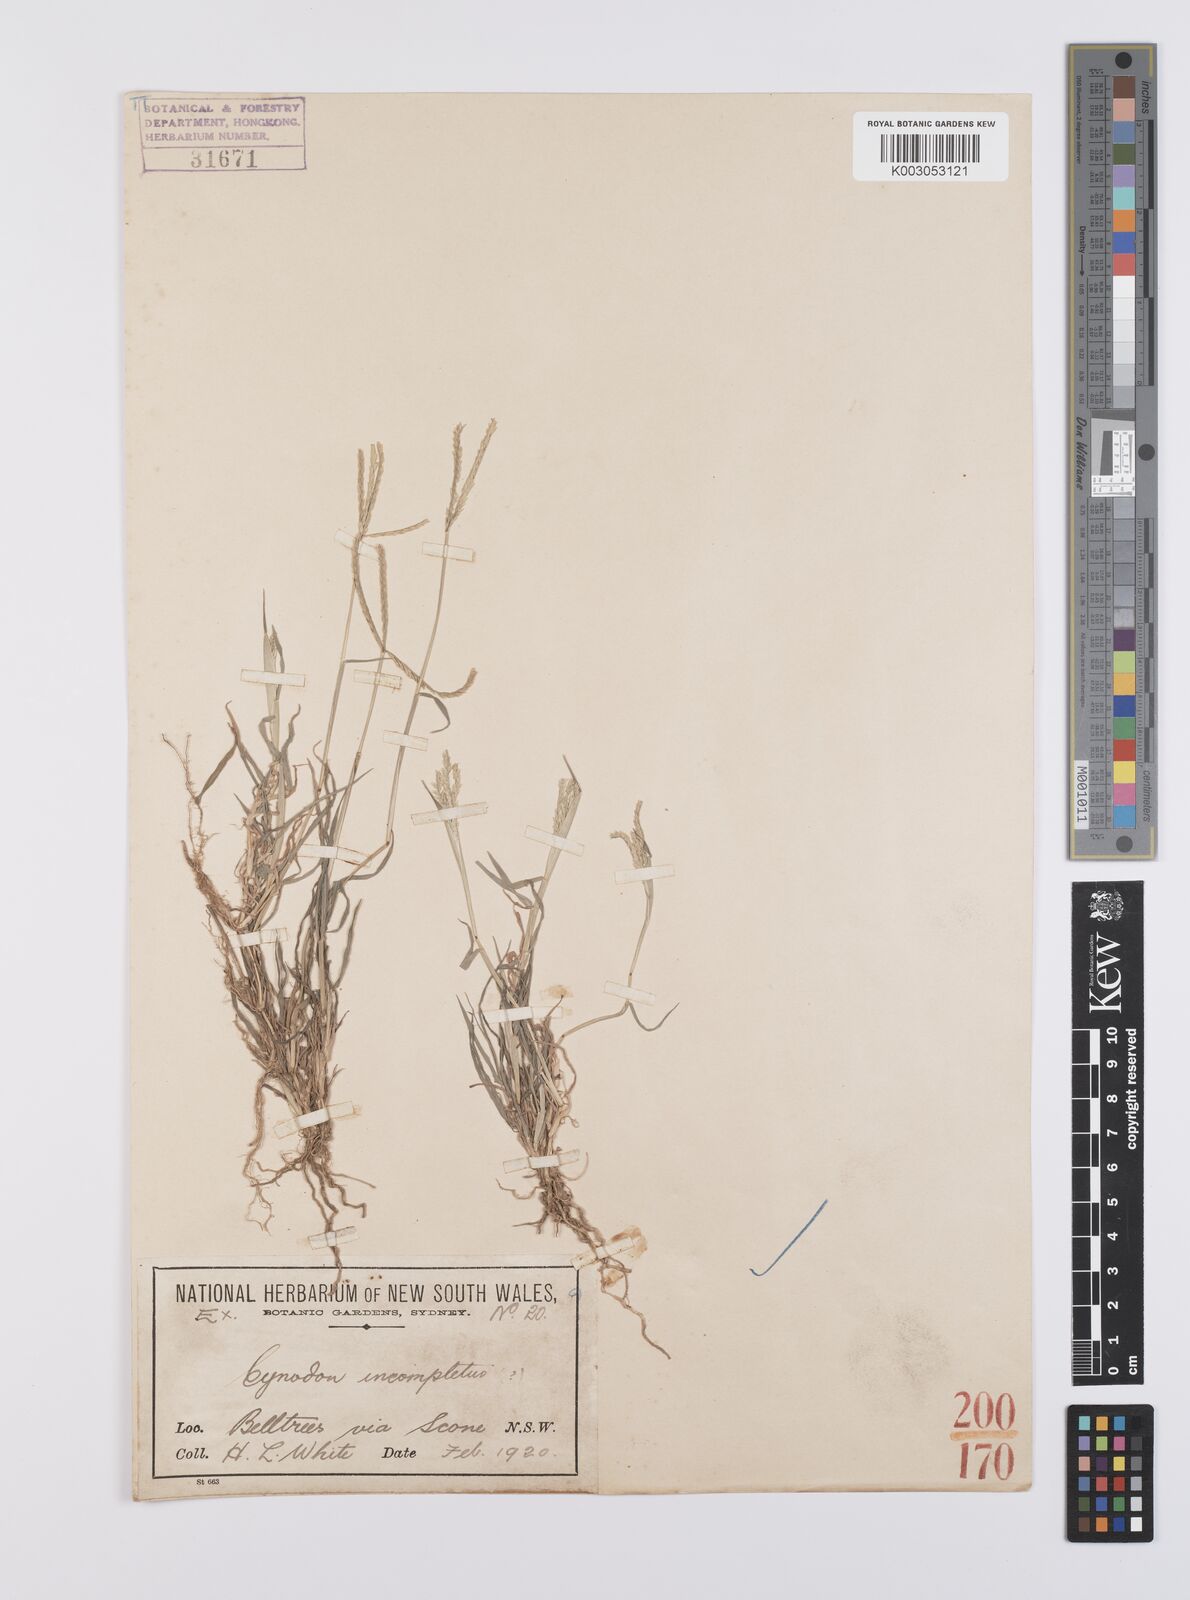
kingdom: Plantae
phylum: Tracheophyta
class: Liliopsida
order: Poales
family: Poaceae
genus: Cynodon
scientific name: Cynodon incompletus
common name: African bermuda-grass
